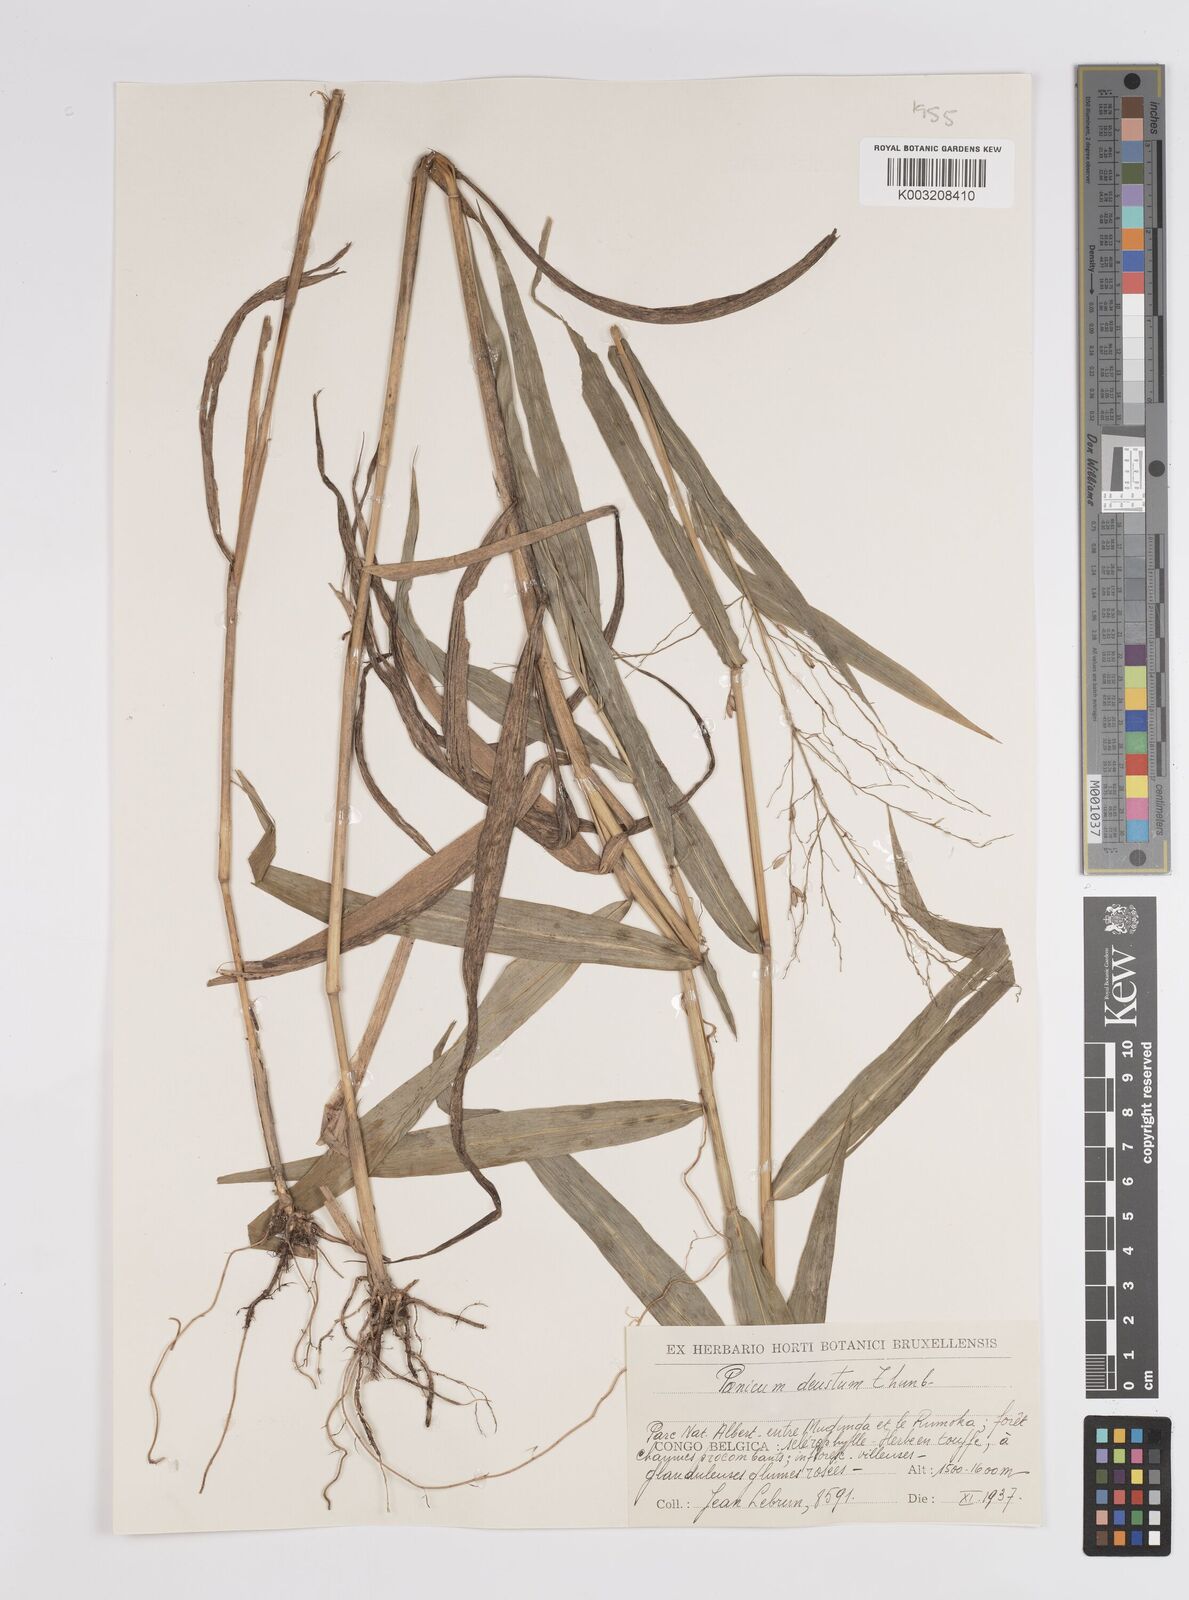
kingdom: Plantae
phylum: Tracheophyta
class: Liliopsida
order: Poales
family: Poaceae
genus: Panicum
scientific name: Panicum deustum
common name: Reed panicum
